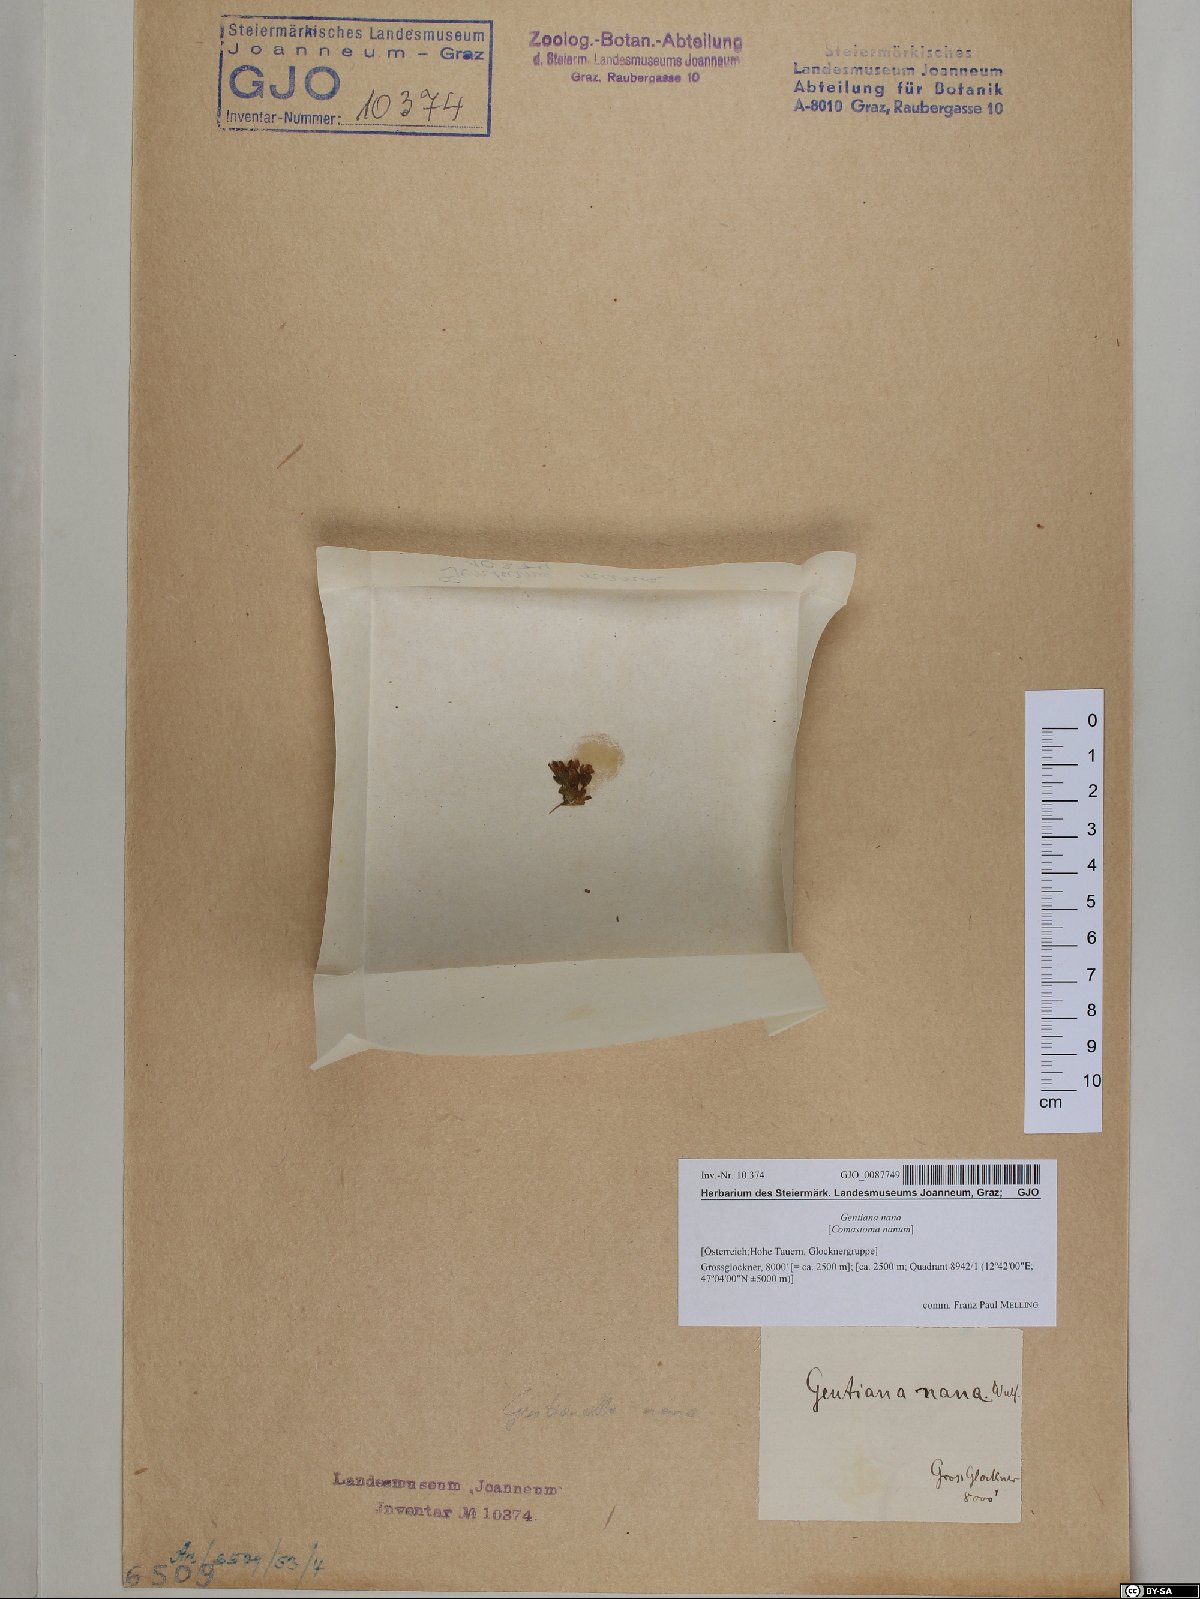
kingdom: Plantae
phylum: Tracheophyta
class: Magnoliopsida
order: Gentianales
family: Gentianaceae
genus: Comastoma
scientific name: Comastoma nanum
